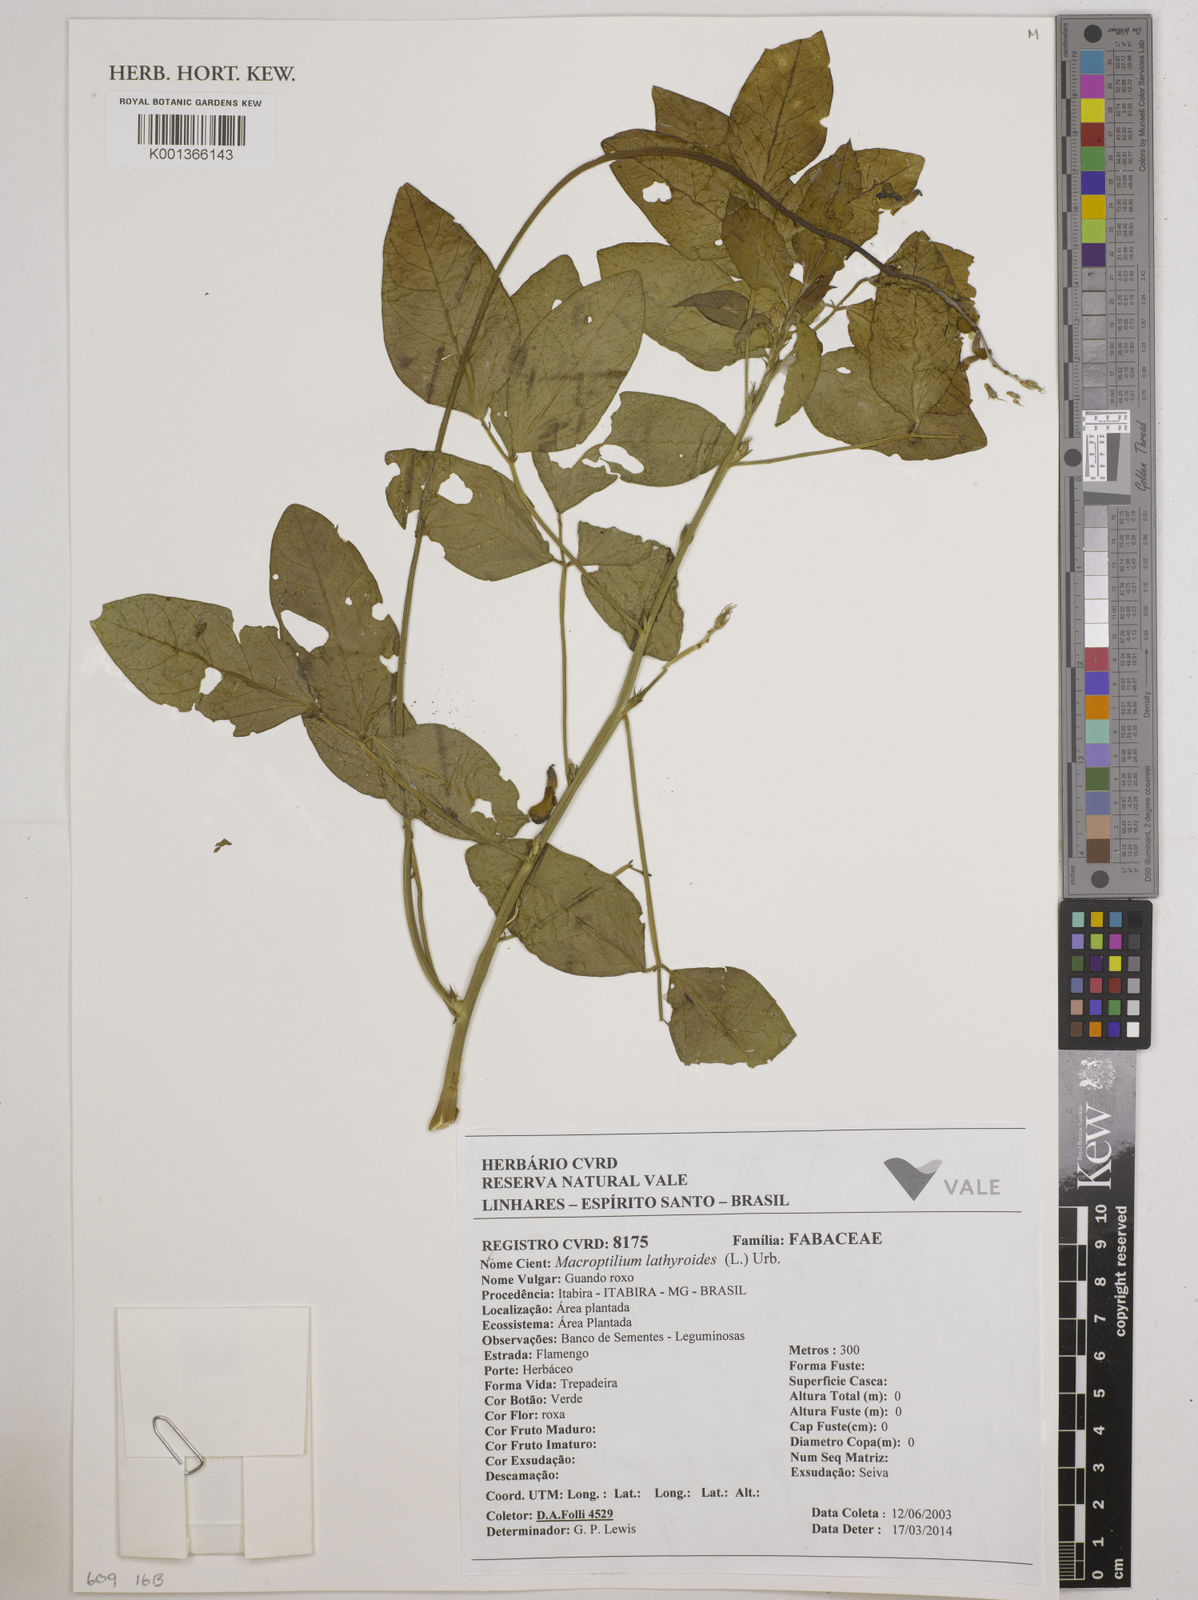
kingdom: Plantae
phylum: Tracheophyta
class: Magnoliopsida
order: Fabales
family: Fabaceae
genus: Macroptilium
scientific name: Macroptilium lathyroides
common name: Wild bushbean
